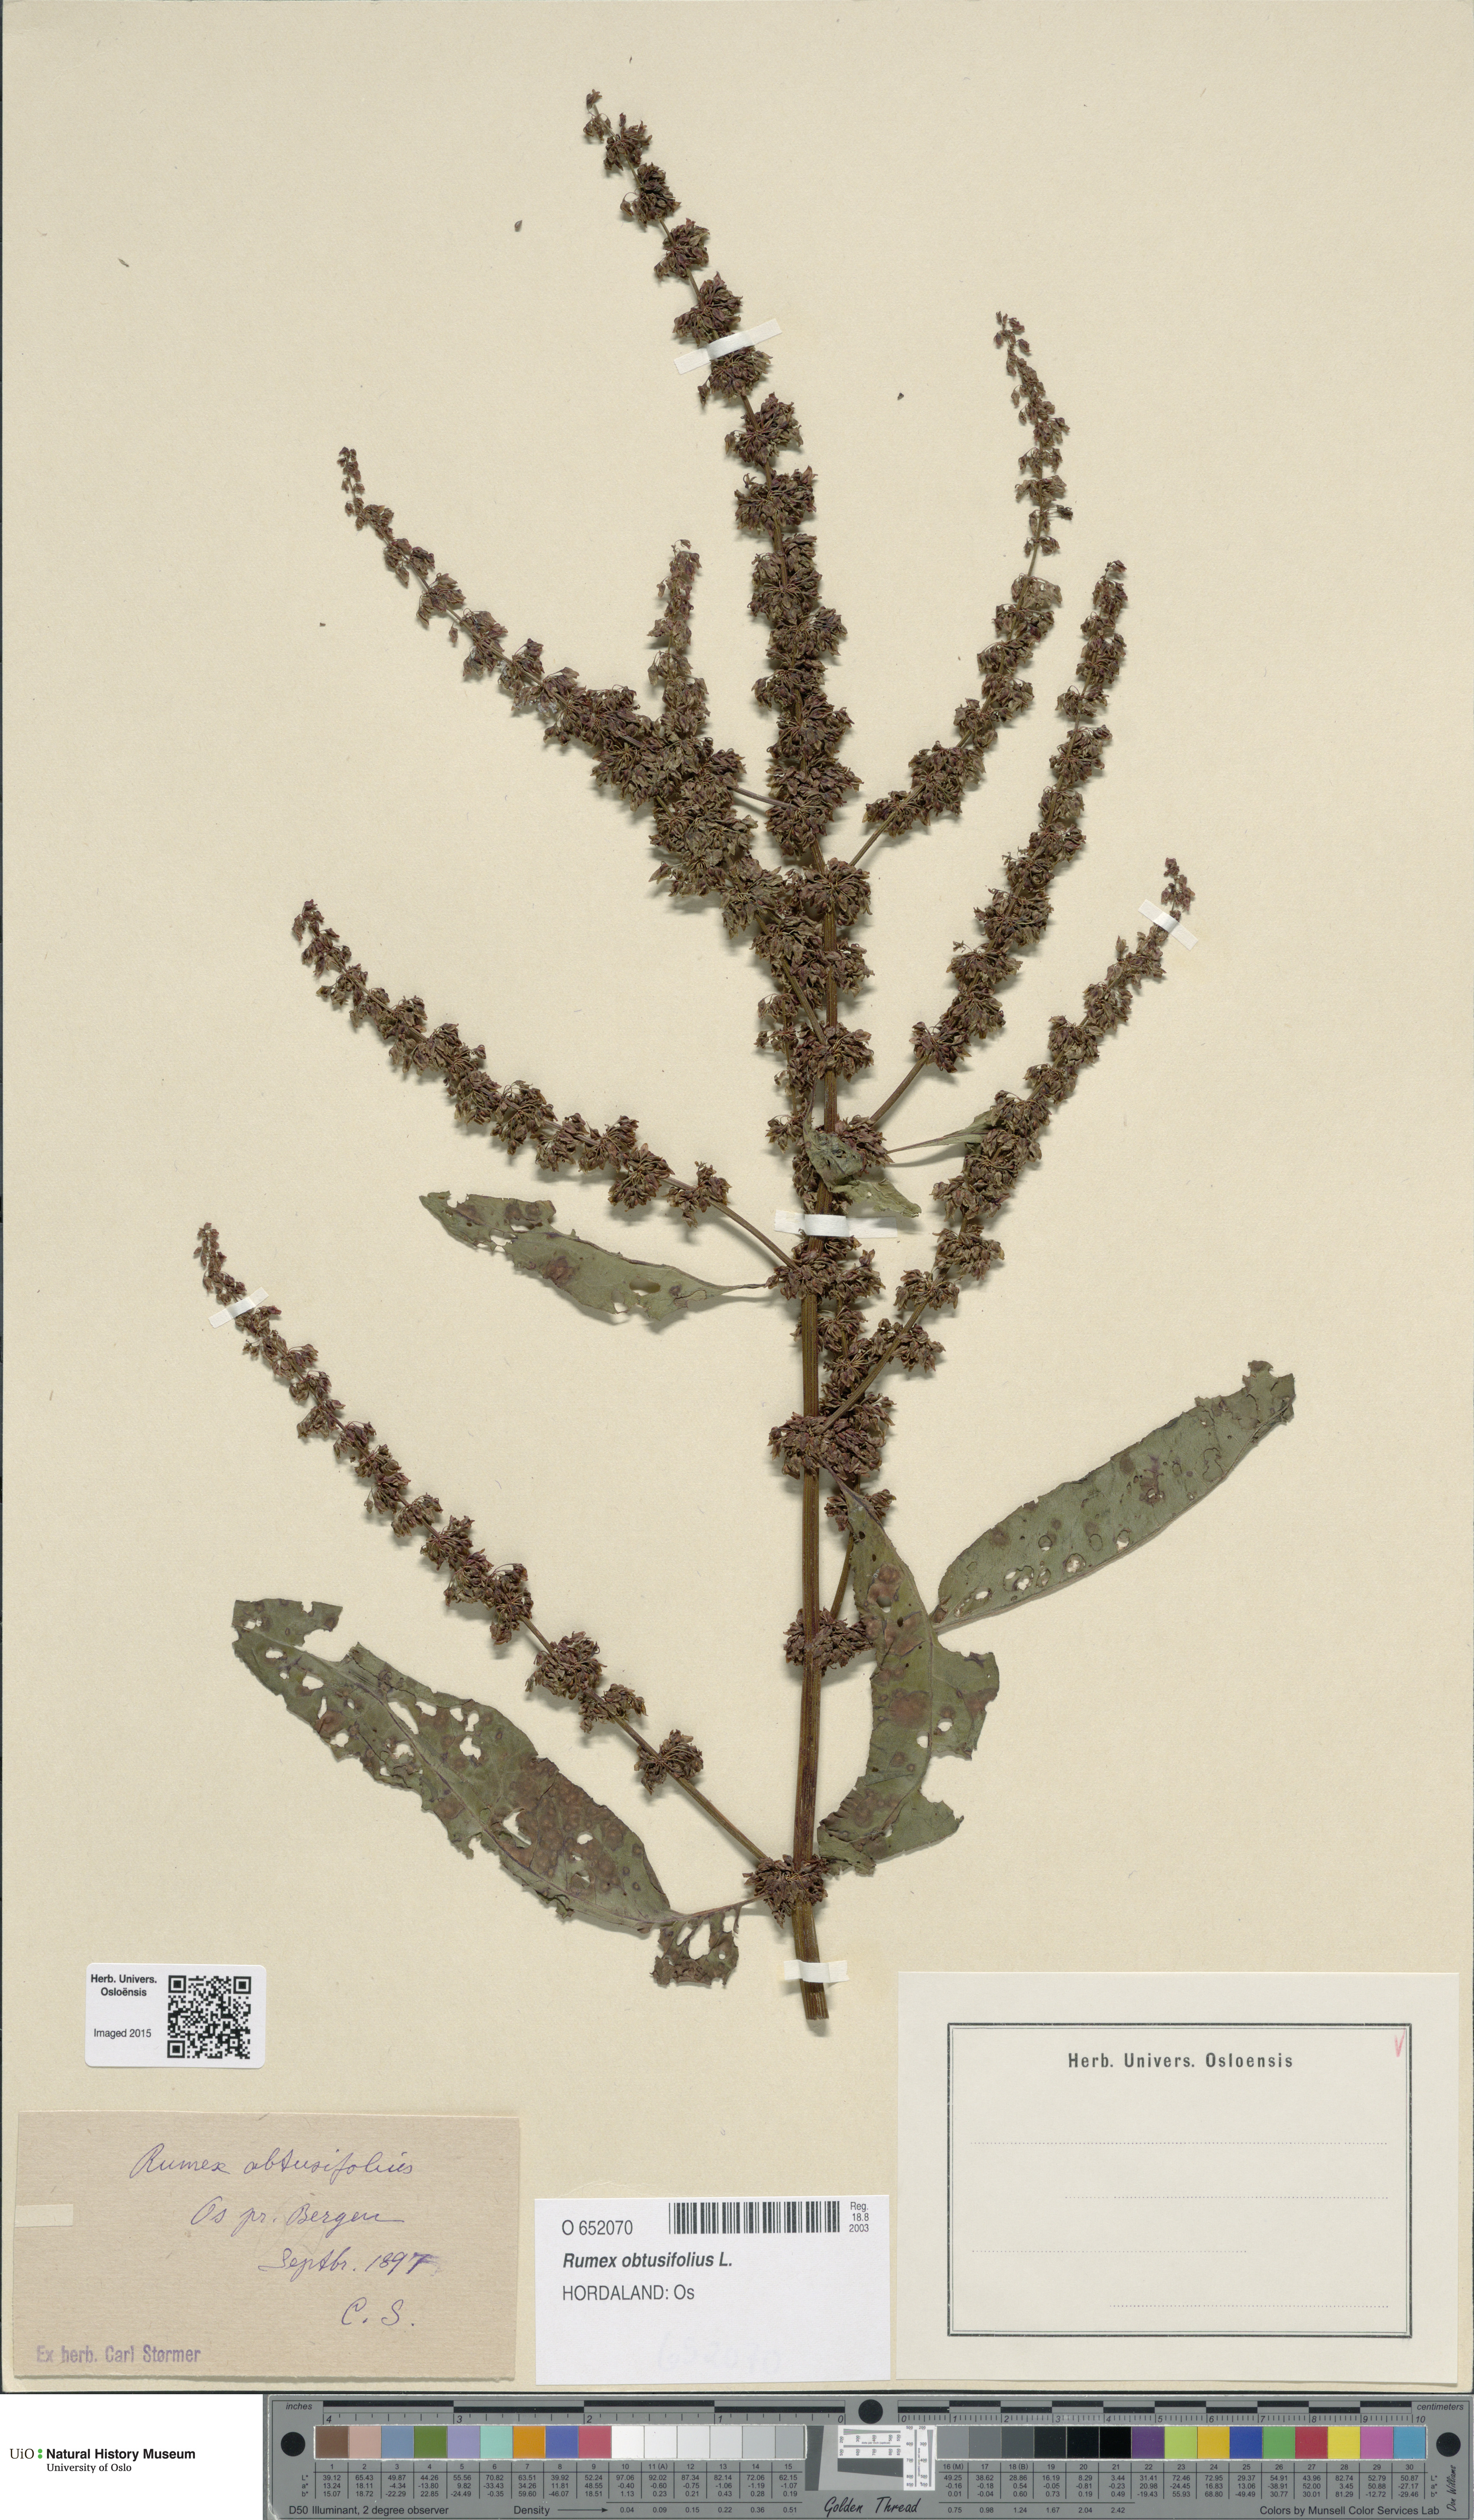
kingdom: Plantae
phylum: Tracheophyta
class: Magnoliopsida
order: Caryophyllales
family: Polygonaceae
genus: Rumex
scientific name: Rumex obtusifolius
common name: Bitter dock
